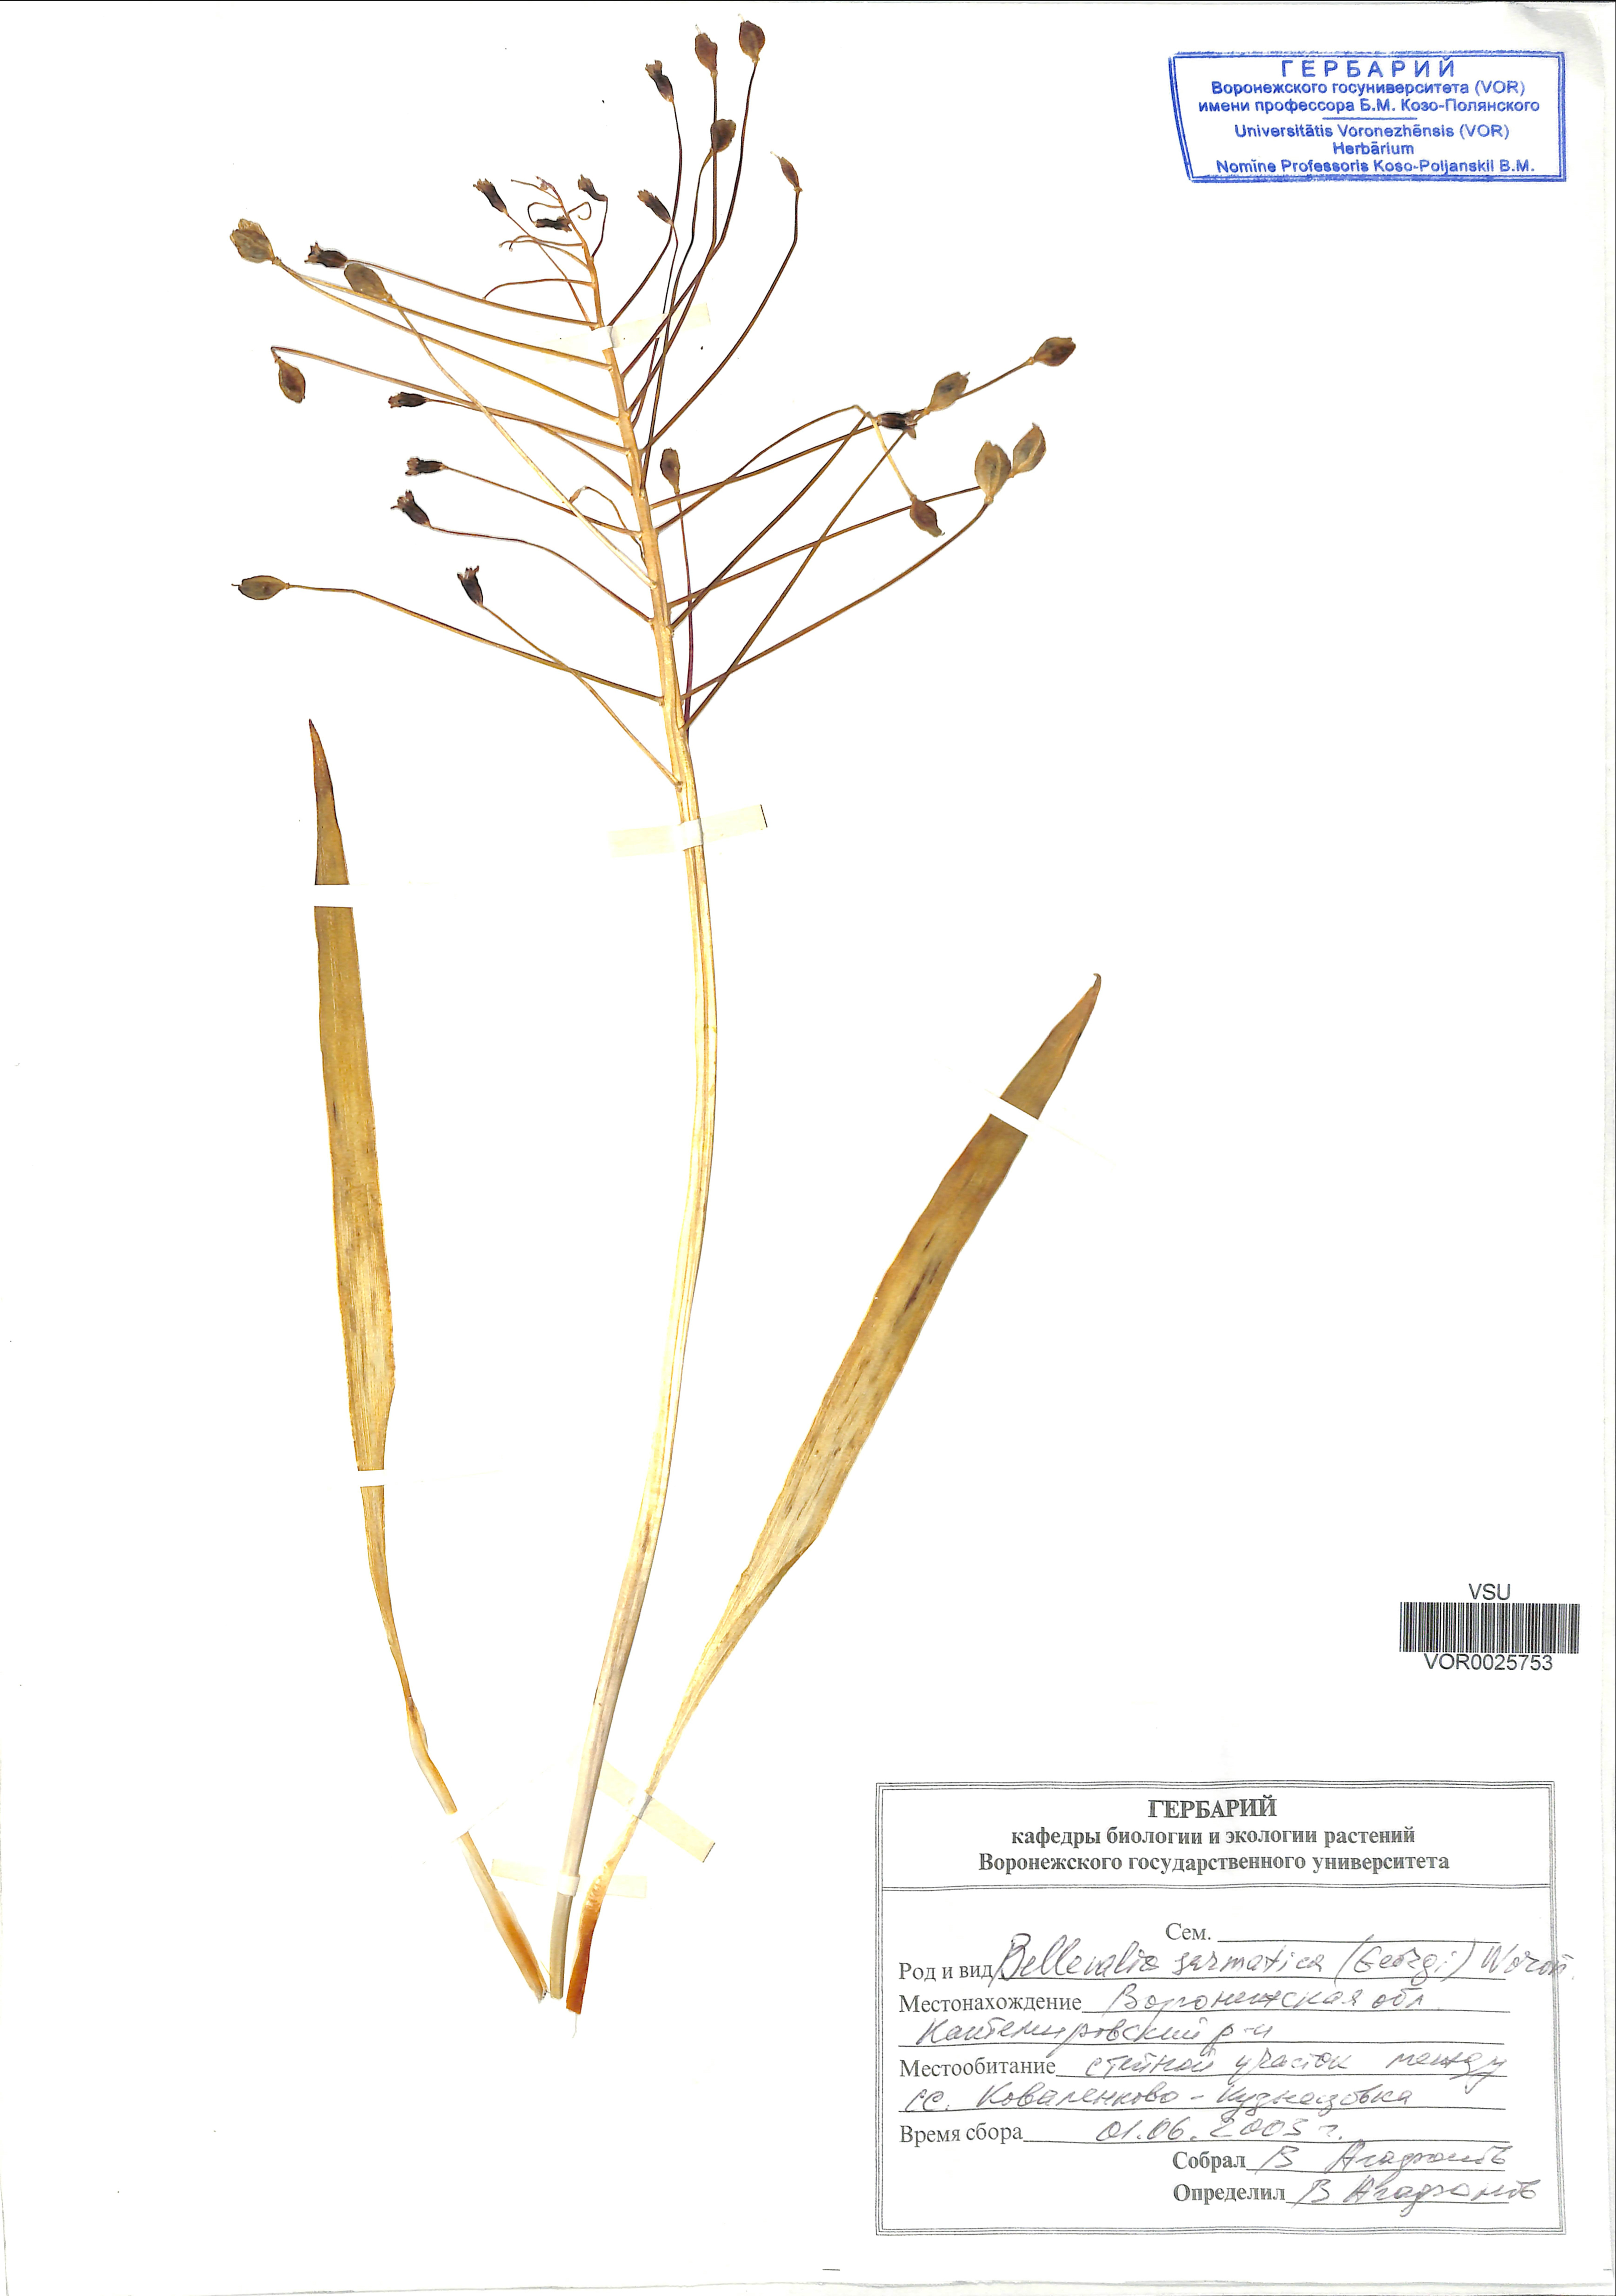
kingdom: Plantae
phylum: Tracheophyta
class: Liliopsida
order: Asparagales
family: Asparagaceae
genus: Bellevalia
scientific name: Bellevalia speciosa
